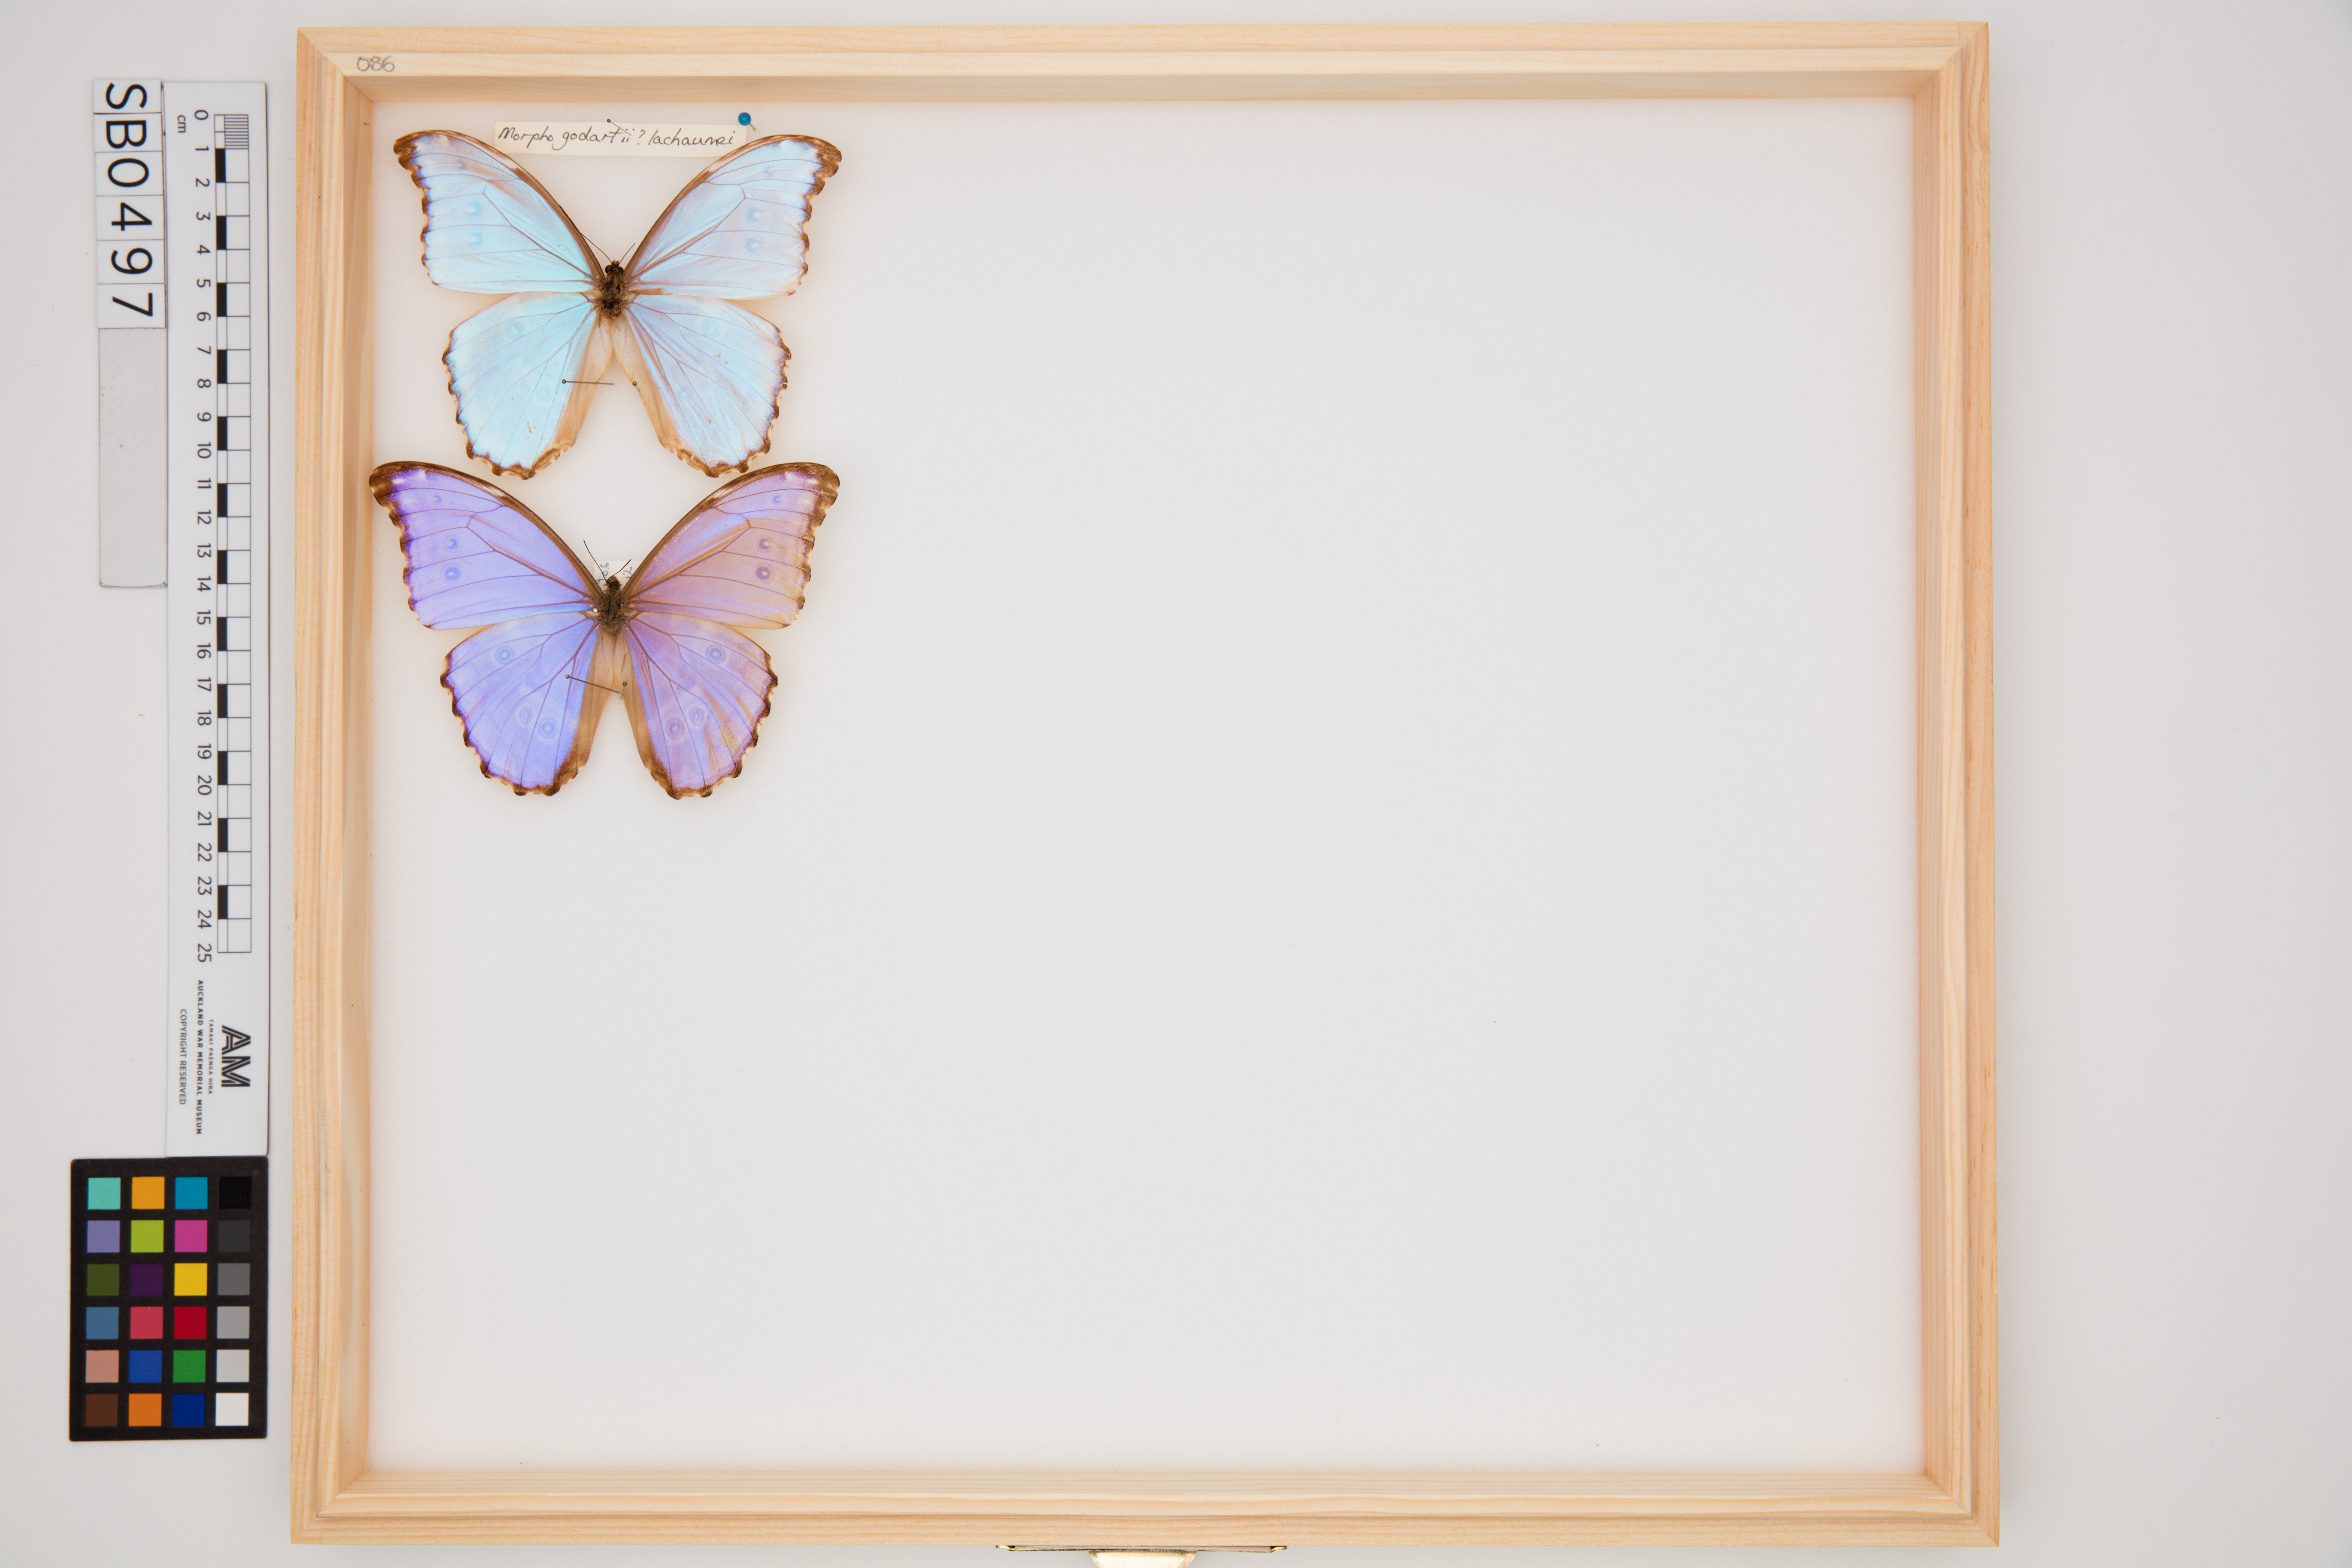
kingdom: Animalia
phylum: Arthropoda
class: Insecta
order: Lepidoptera
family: Nymphalidae
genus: Morpho
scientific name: Morpho godartii
